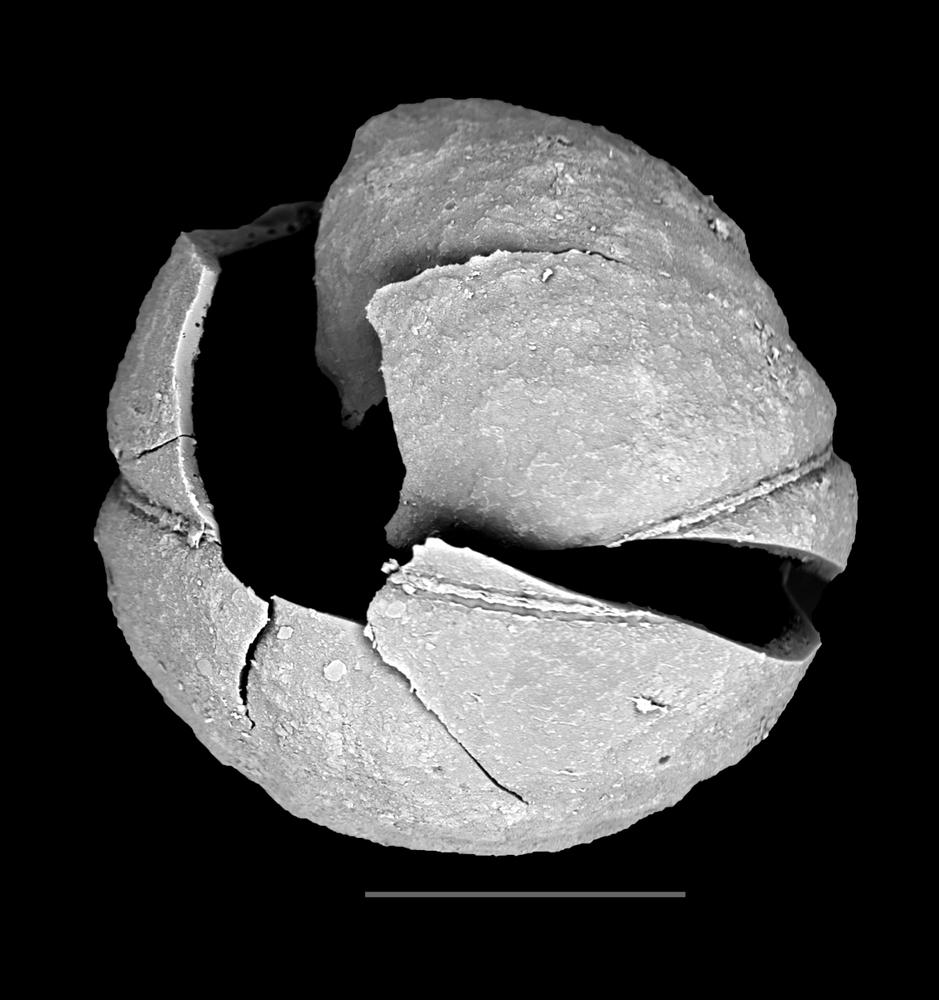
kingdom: Animalia
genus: Vikisphaera
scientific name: Vikisphaera
